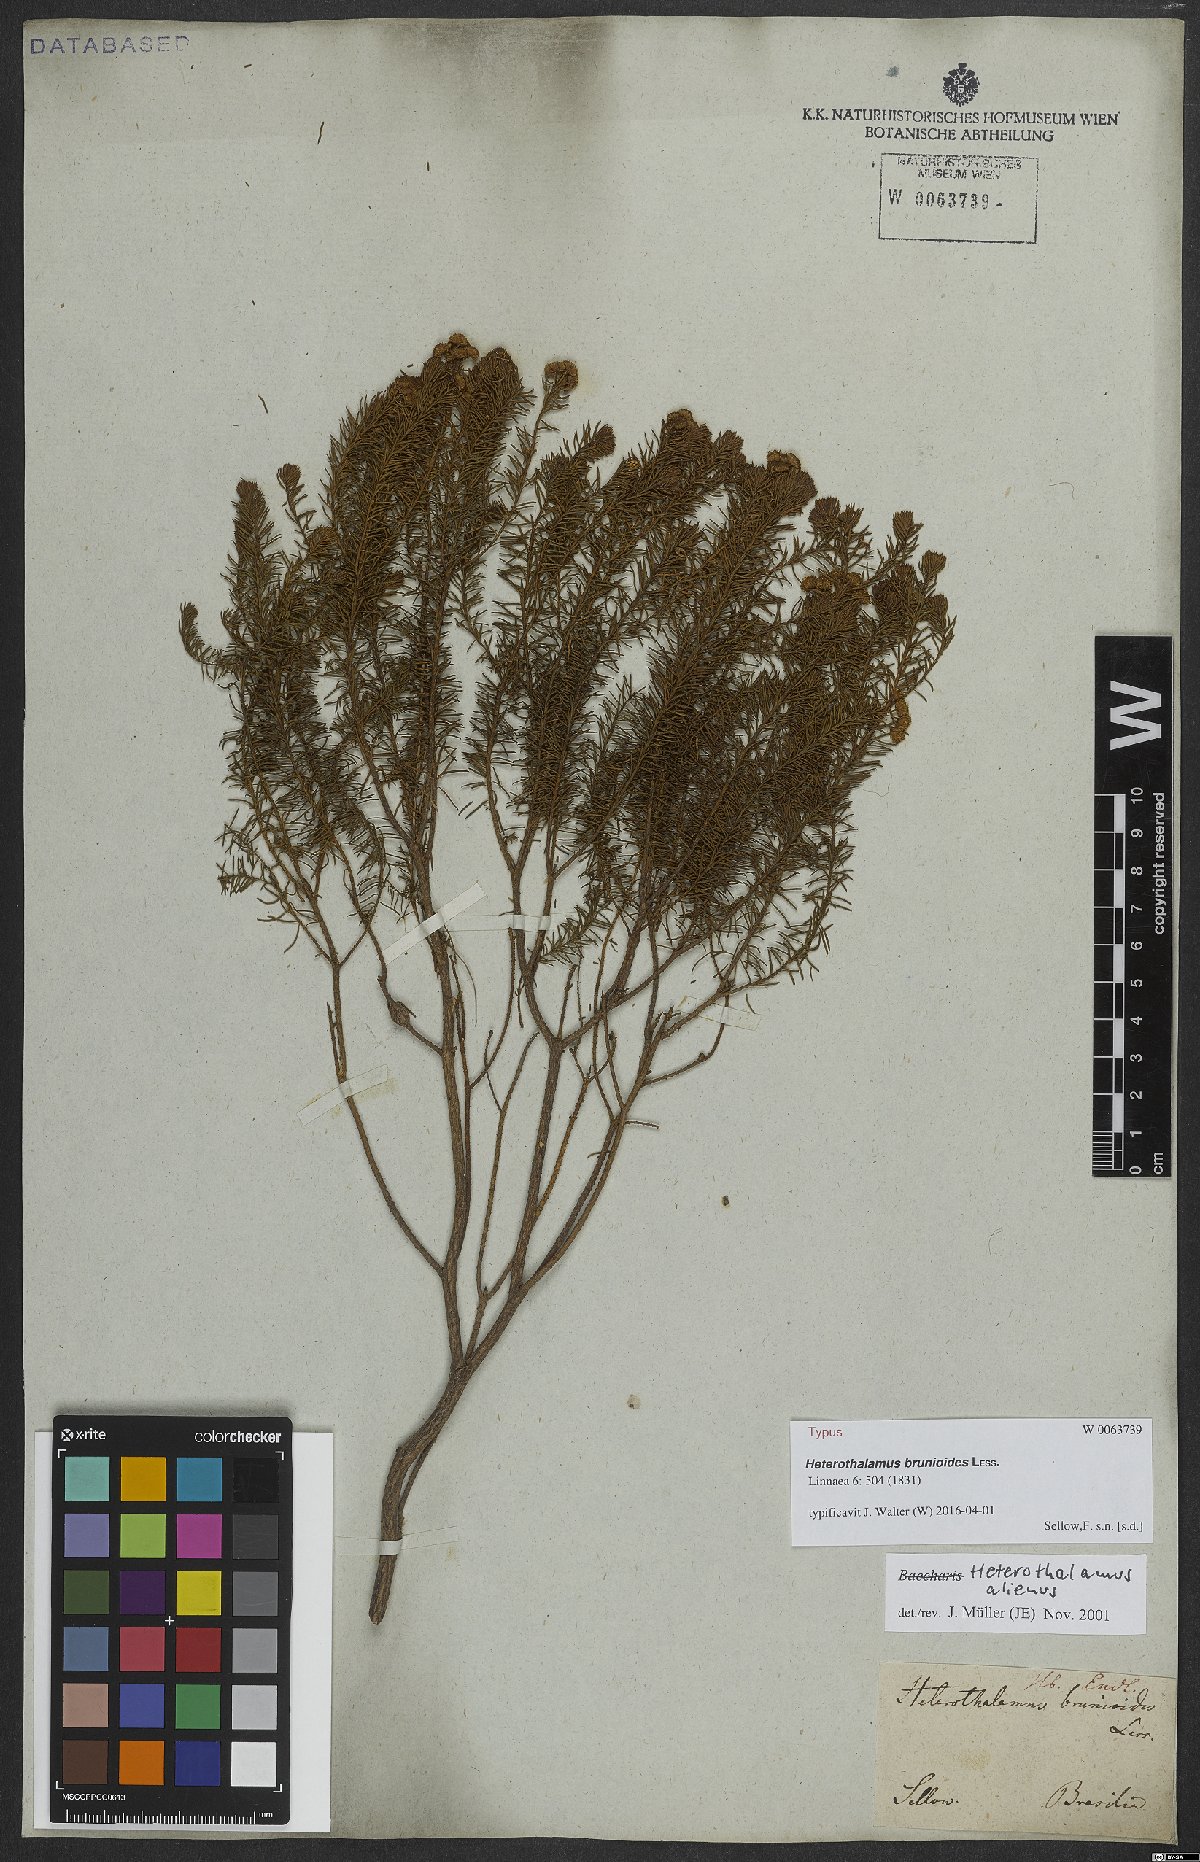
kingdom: Plantae
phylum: Tracheophyta
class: Magnoliopsida
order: Asterales
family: Asteraceae
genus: Baccharis
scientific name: Baccharis aliena
